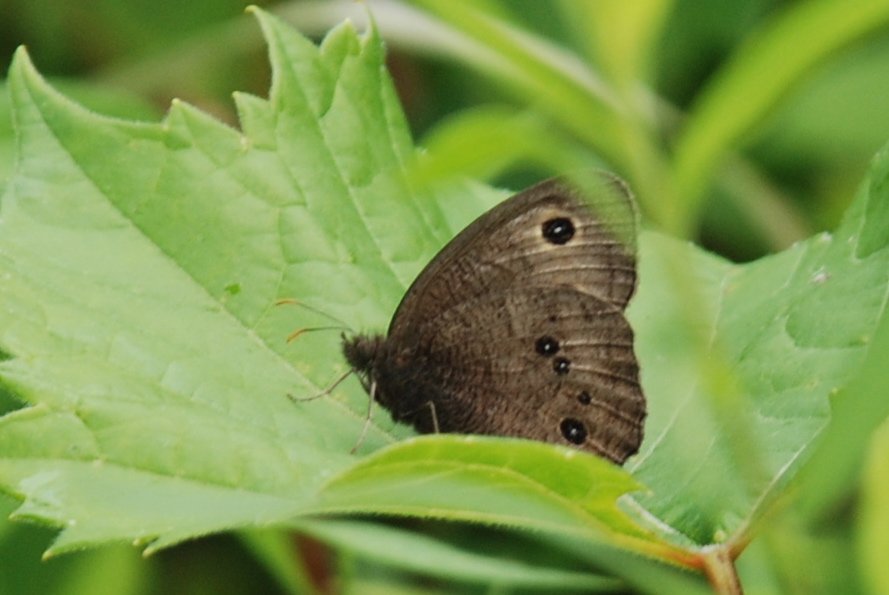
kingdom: Animalia
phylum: Arthropoda
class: Insecta
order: Lepidoptera
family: Nymphalidae
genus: Cercyonis
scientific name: Cercyonis pegala
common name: Common Wood-Nymph
